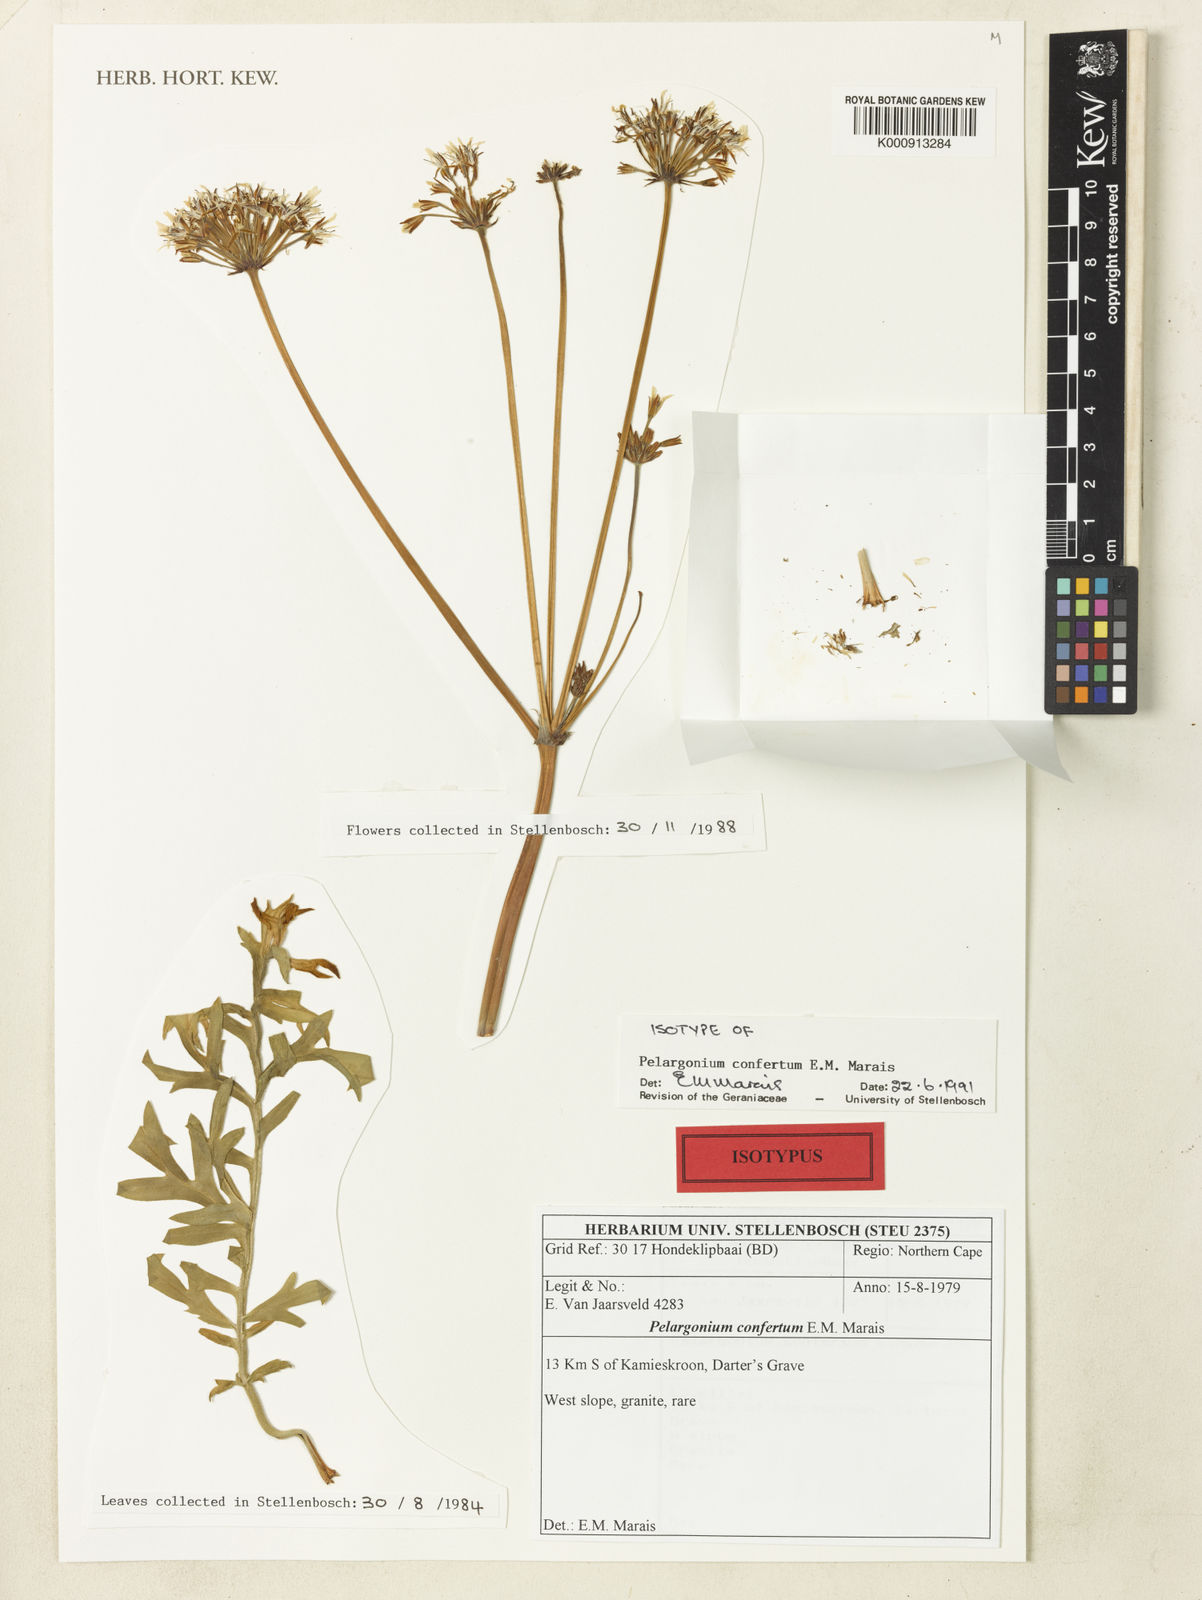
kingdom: Plantae
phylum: Tracheophyta
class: Magnoliopsida
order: Geraniales
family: Geraniaceae
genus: Pelargonium
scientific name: Pelargonium confertum
